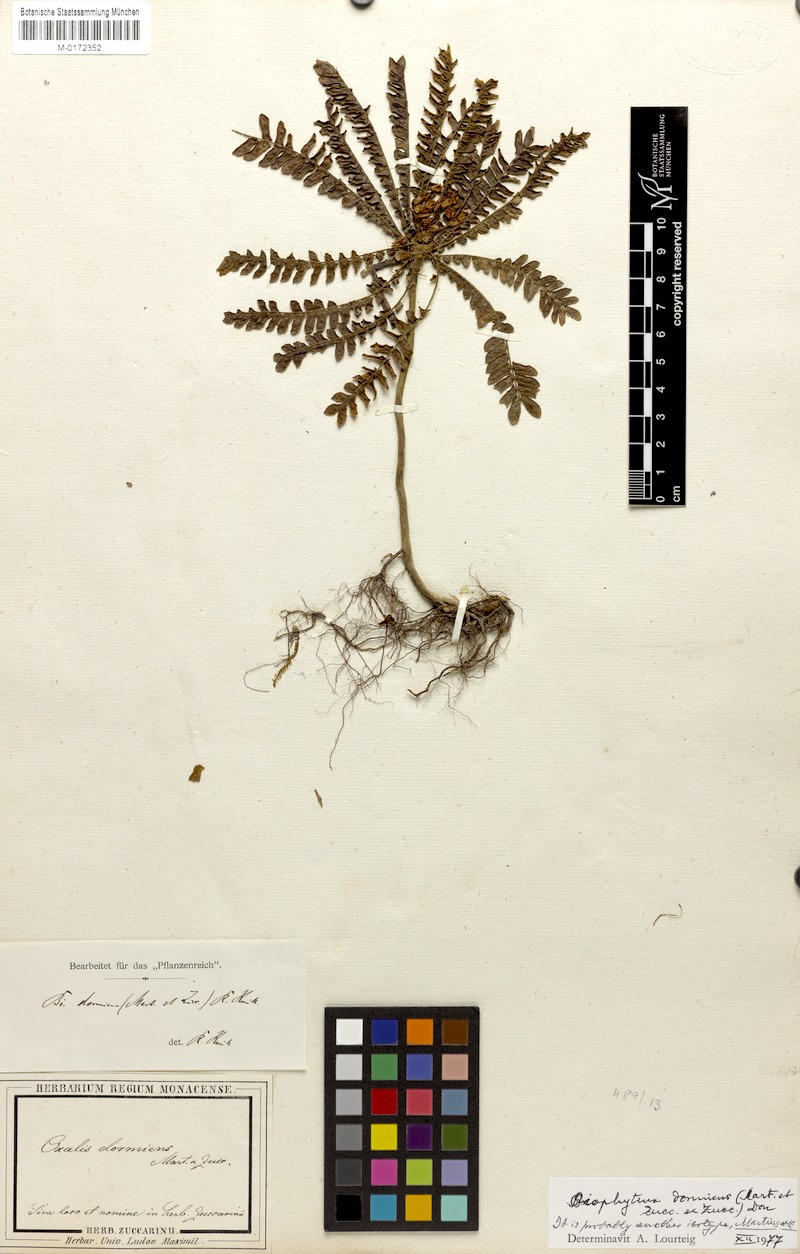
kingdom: Plantae
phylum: Tracheophyta
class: Magnoliopsida
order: Oxalidales
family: Oxalidaceae
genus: Biophytum
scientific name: Biophytum dormiens
